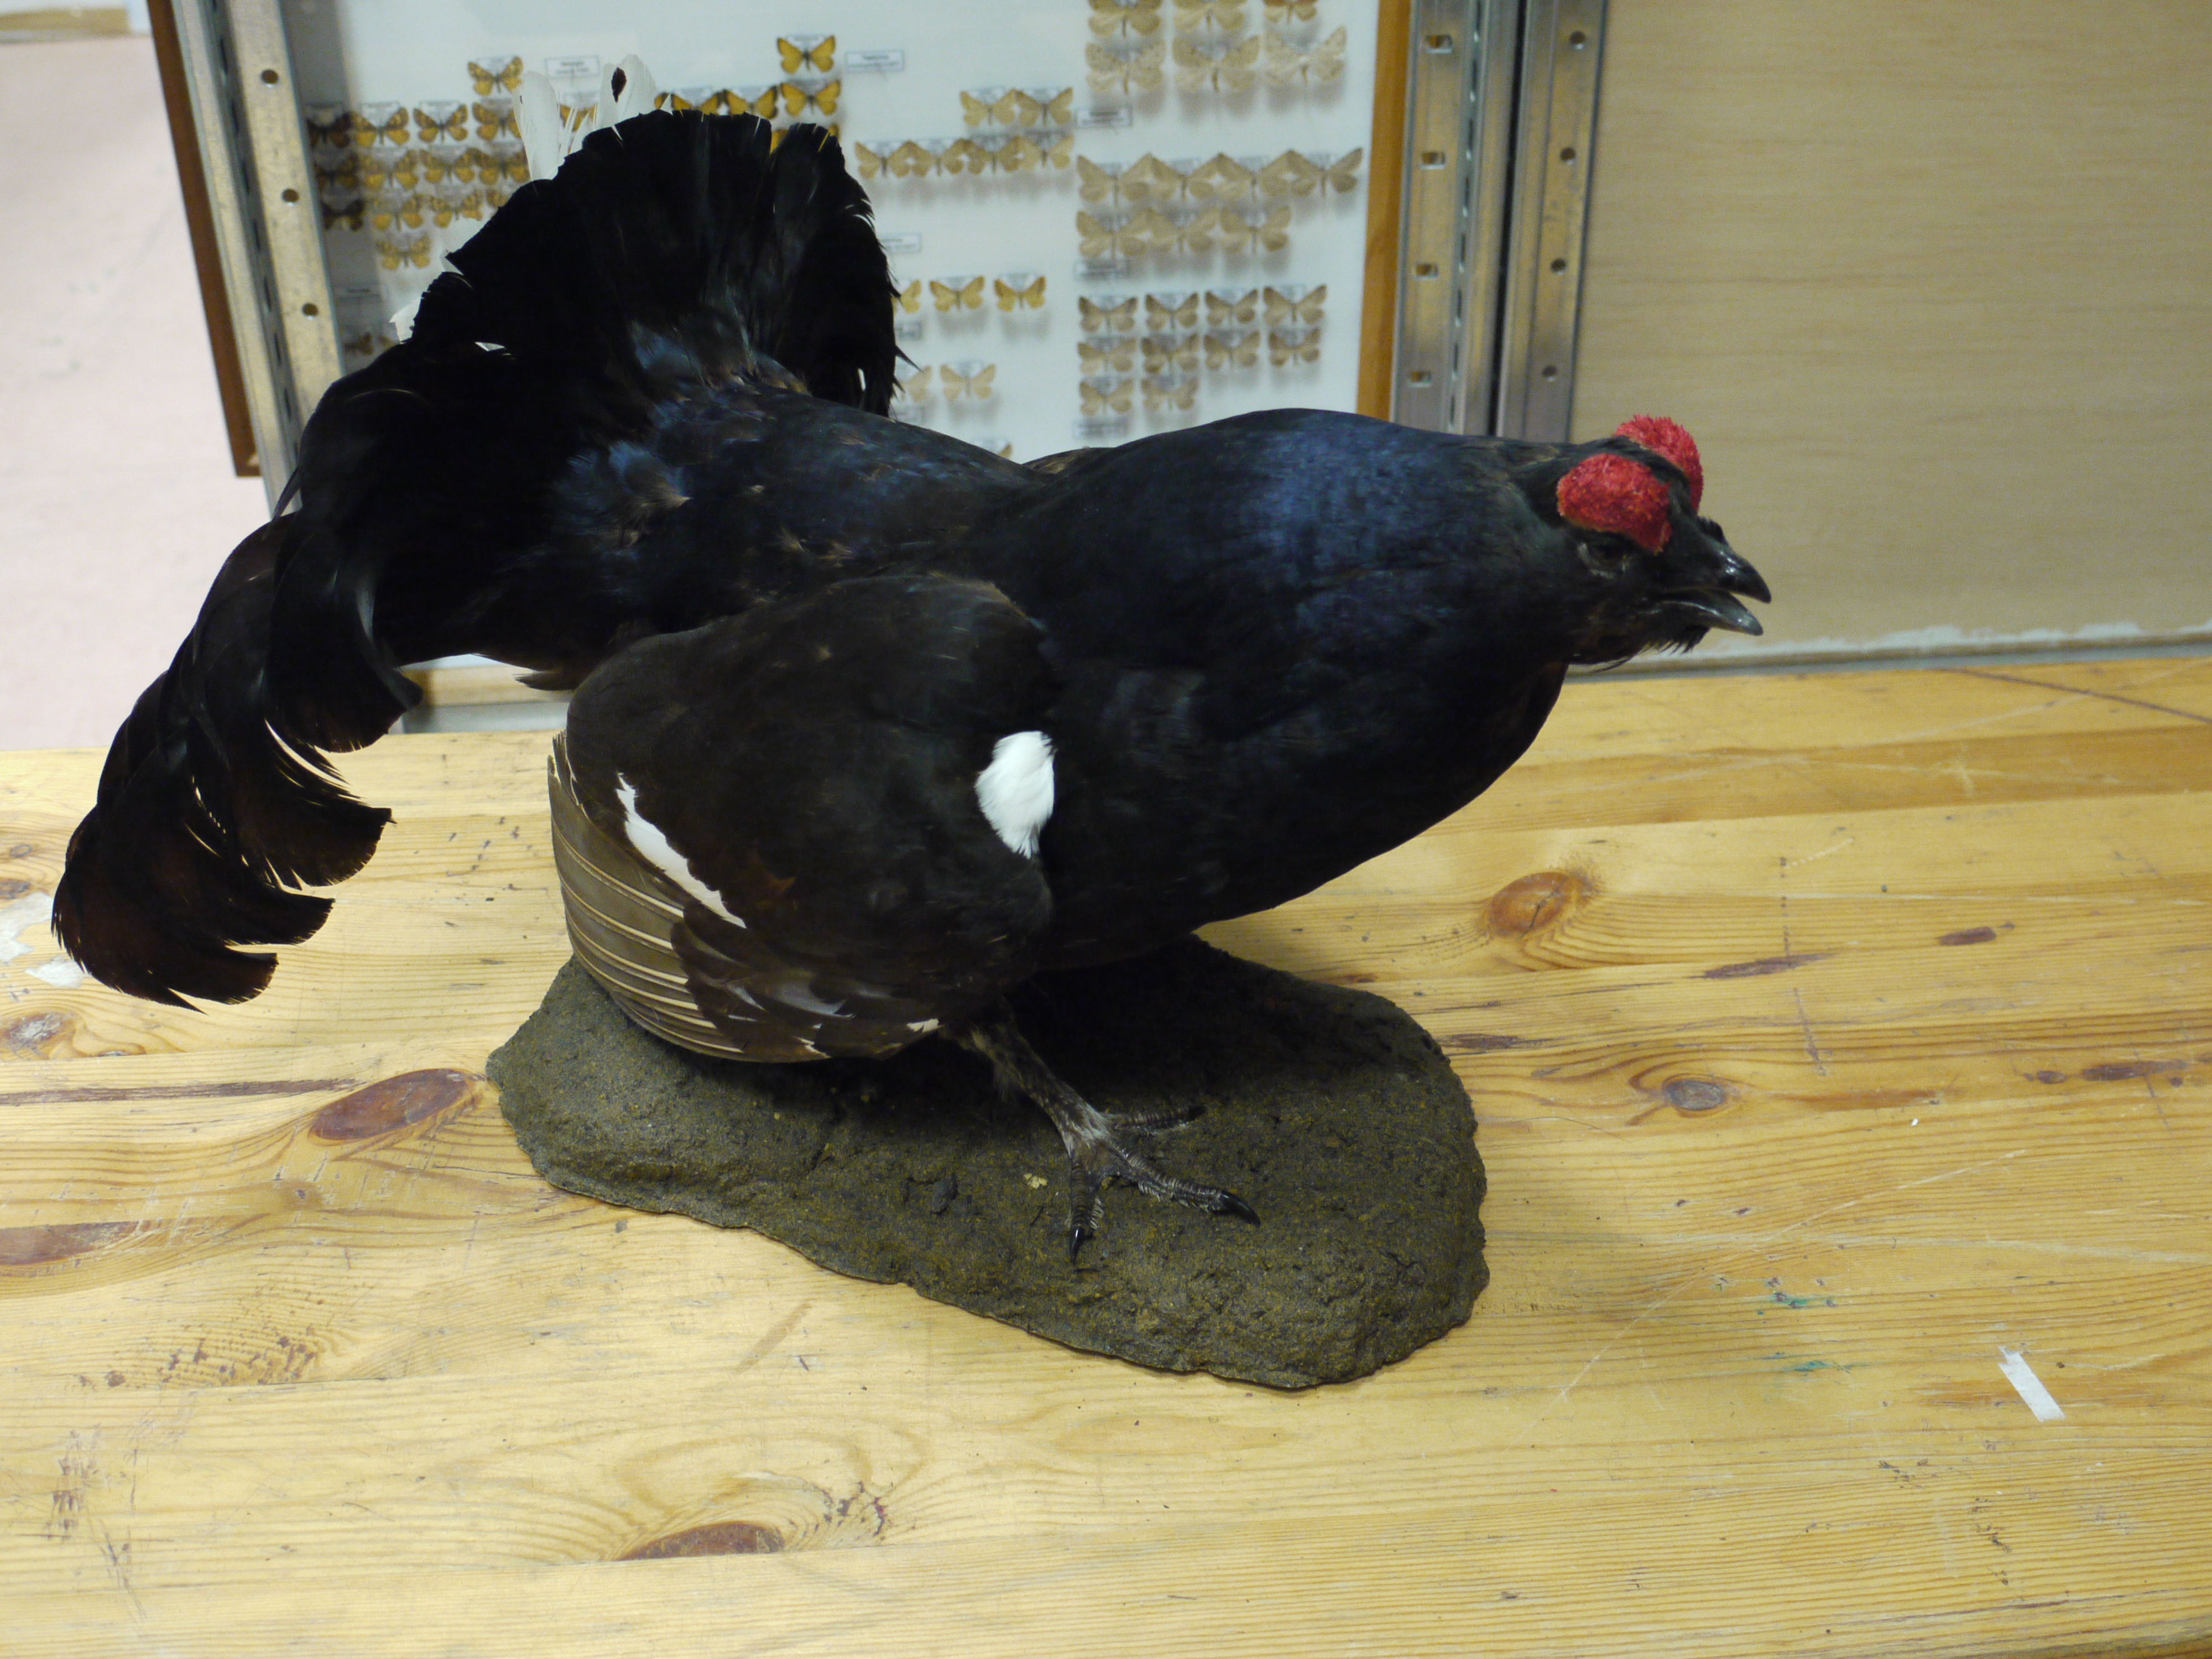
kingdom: Animalia
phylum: Chordata
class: Aves
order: Galliformes
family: Phasianidae
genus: Lyrurus
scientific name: Lyrurus tetrix
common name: Black grouse
